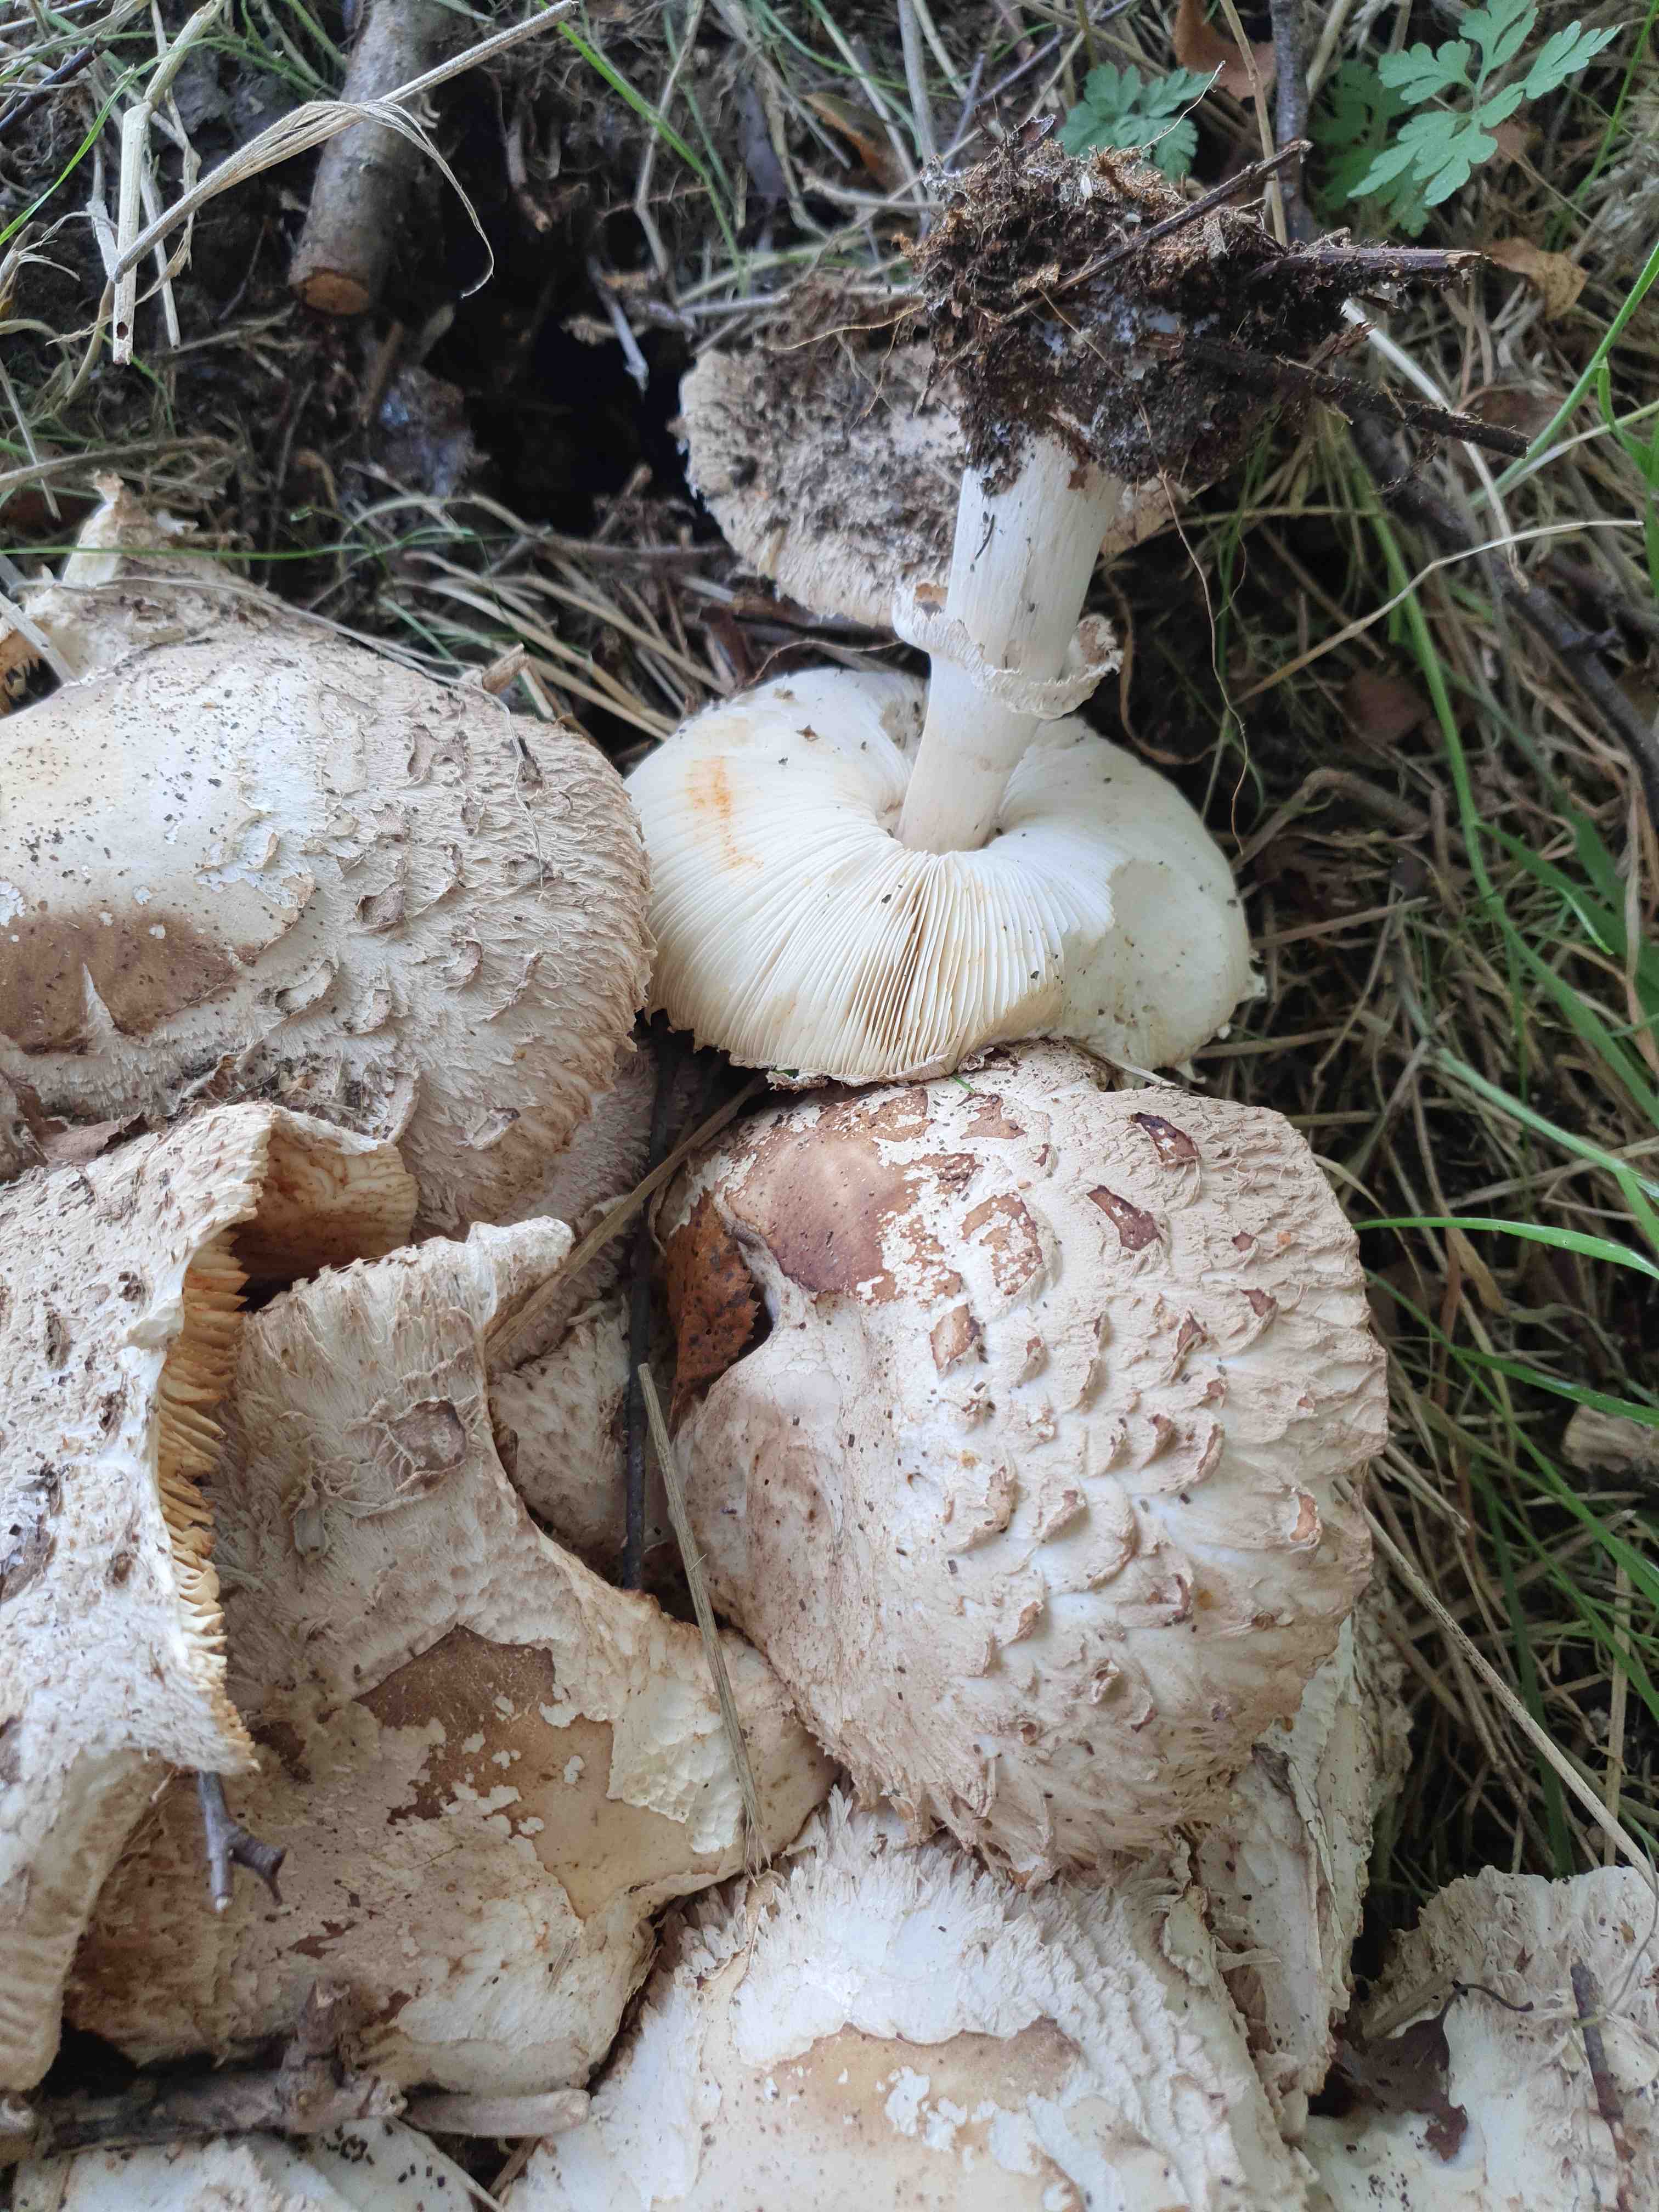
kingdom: Fungi
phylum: Basidiomycota
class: Agaricomycetes
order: Agaricales
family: Agaricaceae
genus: Chlorophyllum
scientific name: Chlorophyllum brunneum
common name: giftig rabarberhat
